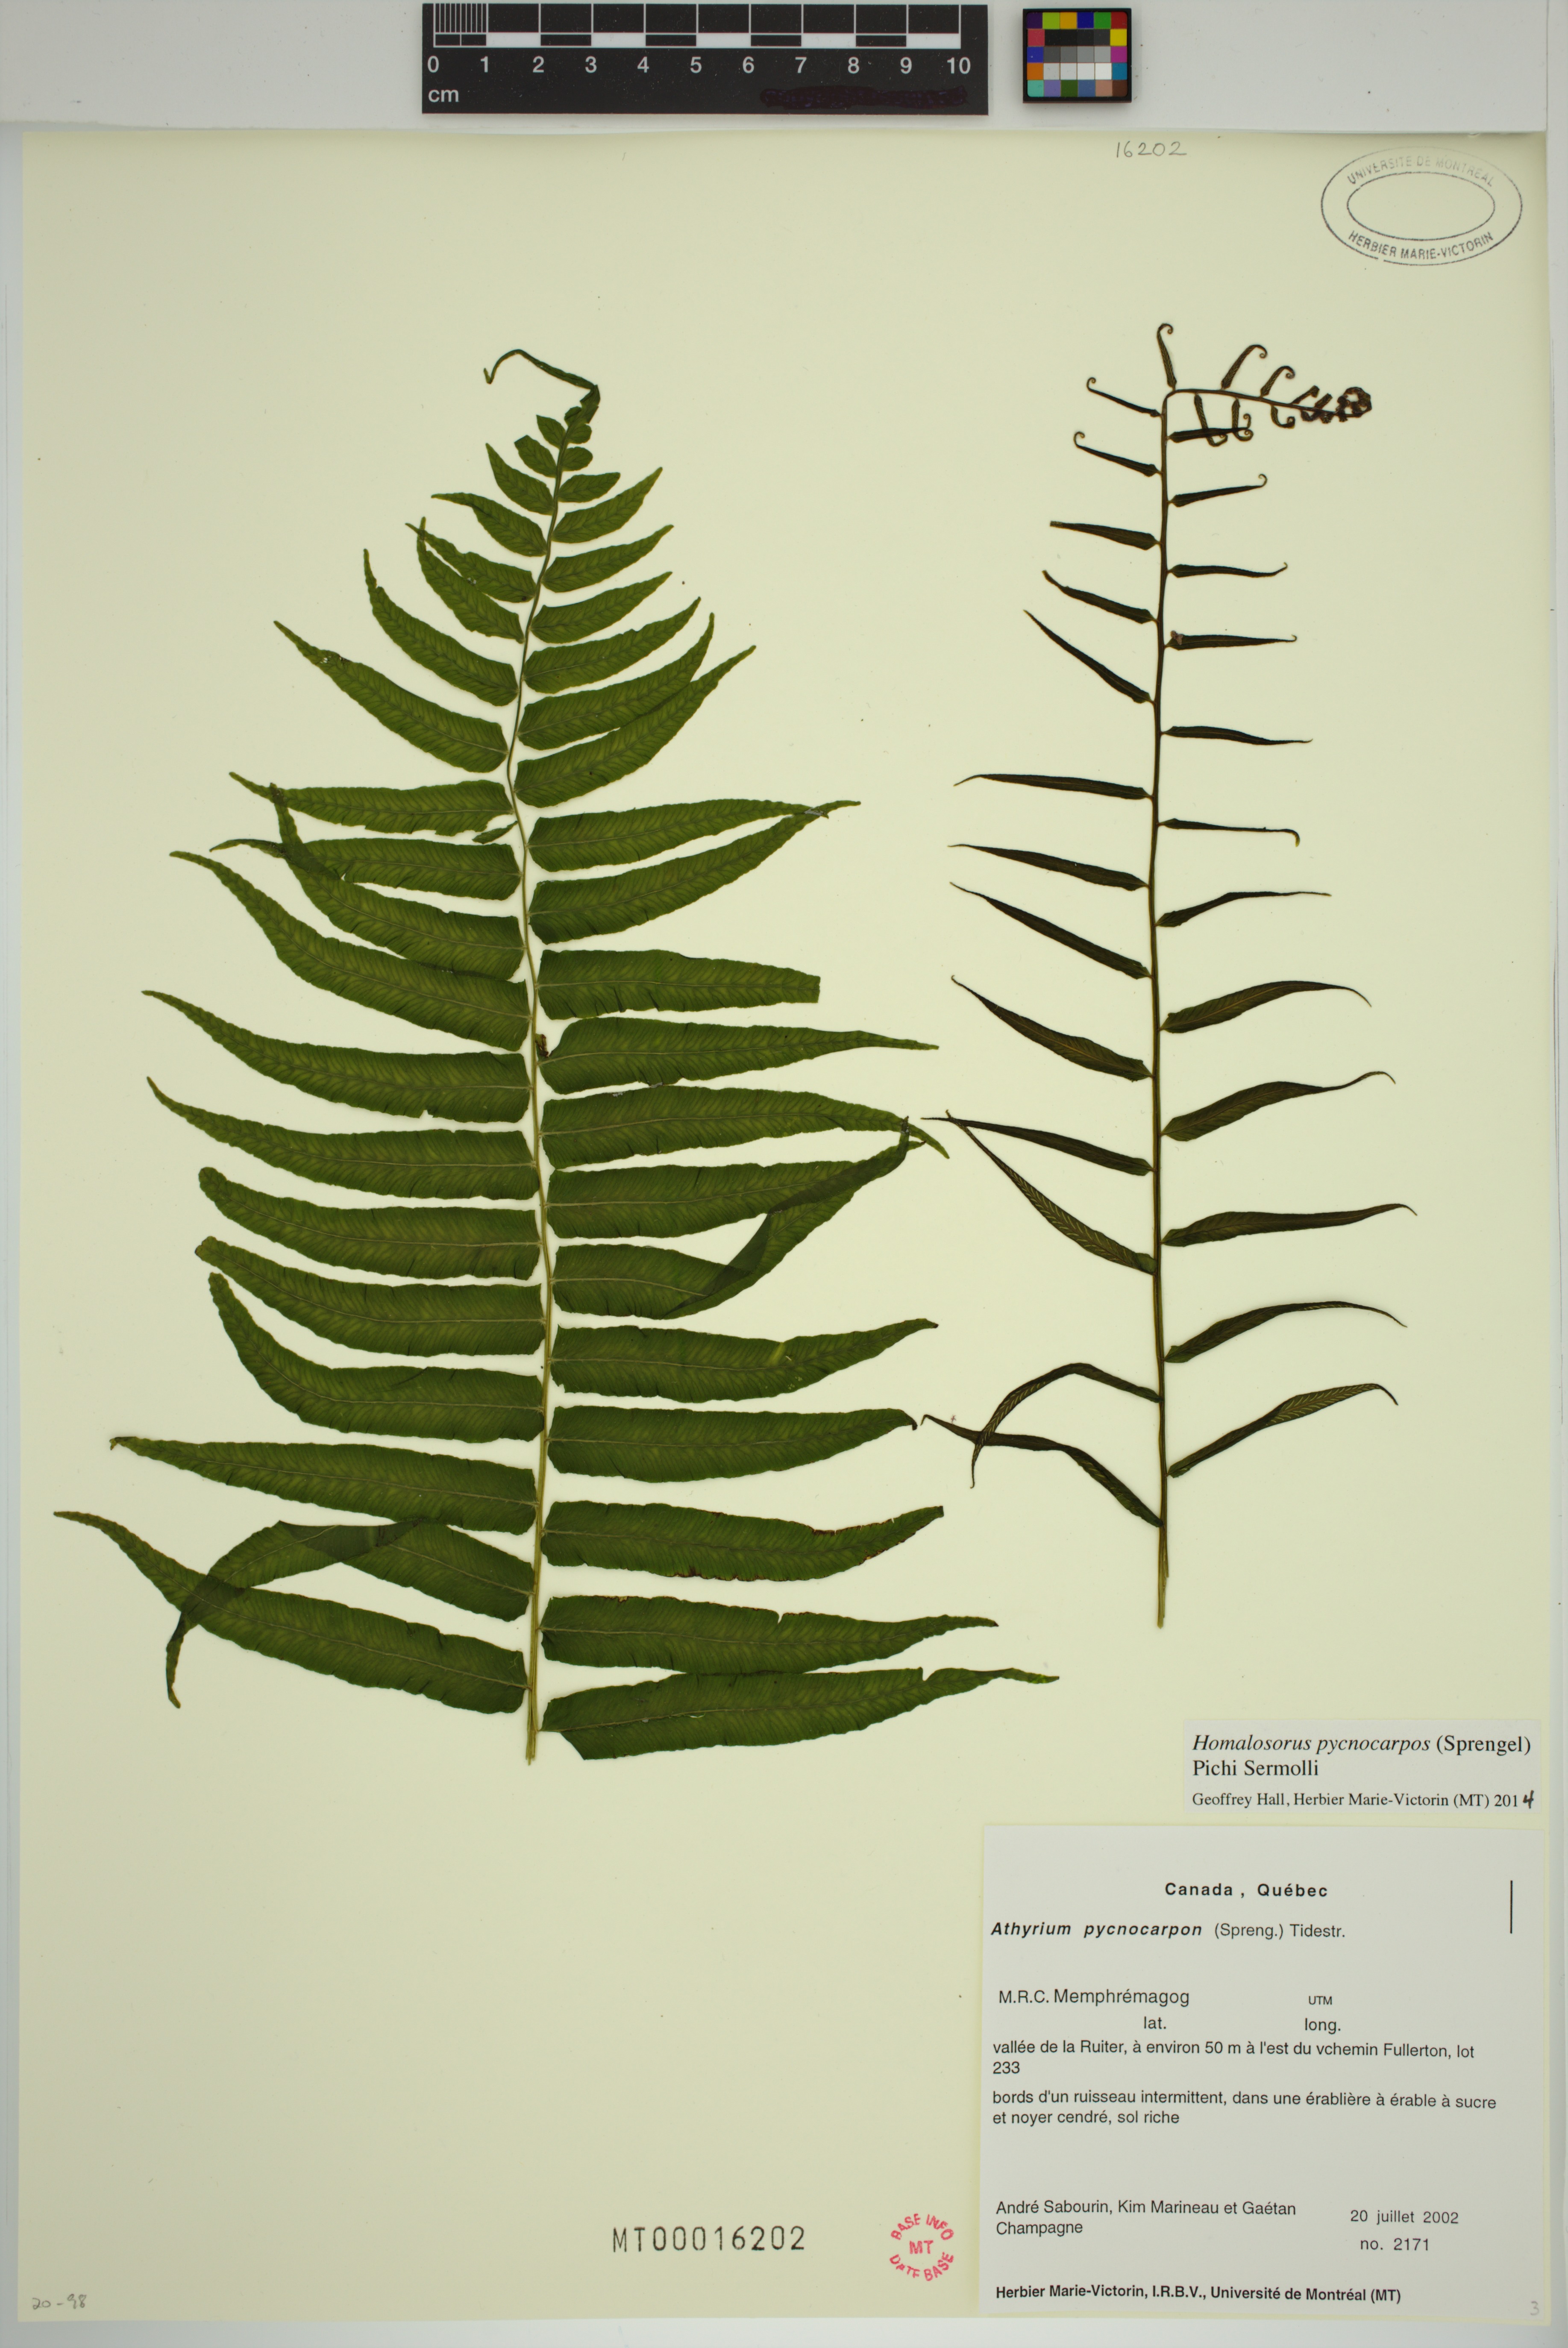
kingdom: Plantae
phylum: Tracheophyta
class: Polypodiopsida
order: Polypodiales
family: Diplaziopsidaceae
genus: Homalosorus
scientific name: Homalosorus pycnocarpos
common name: Glade fern
